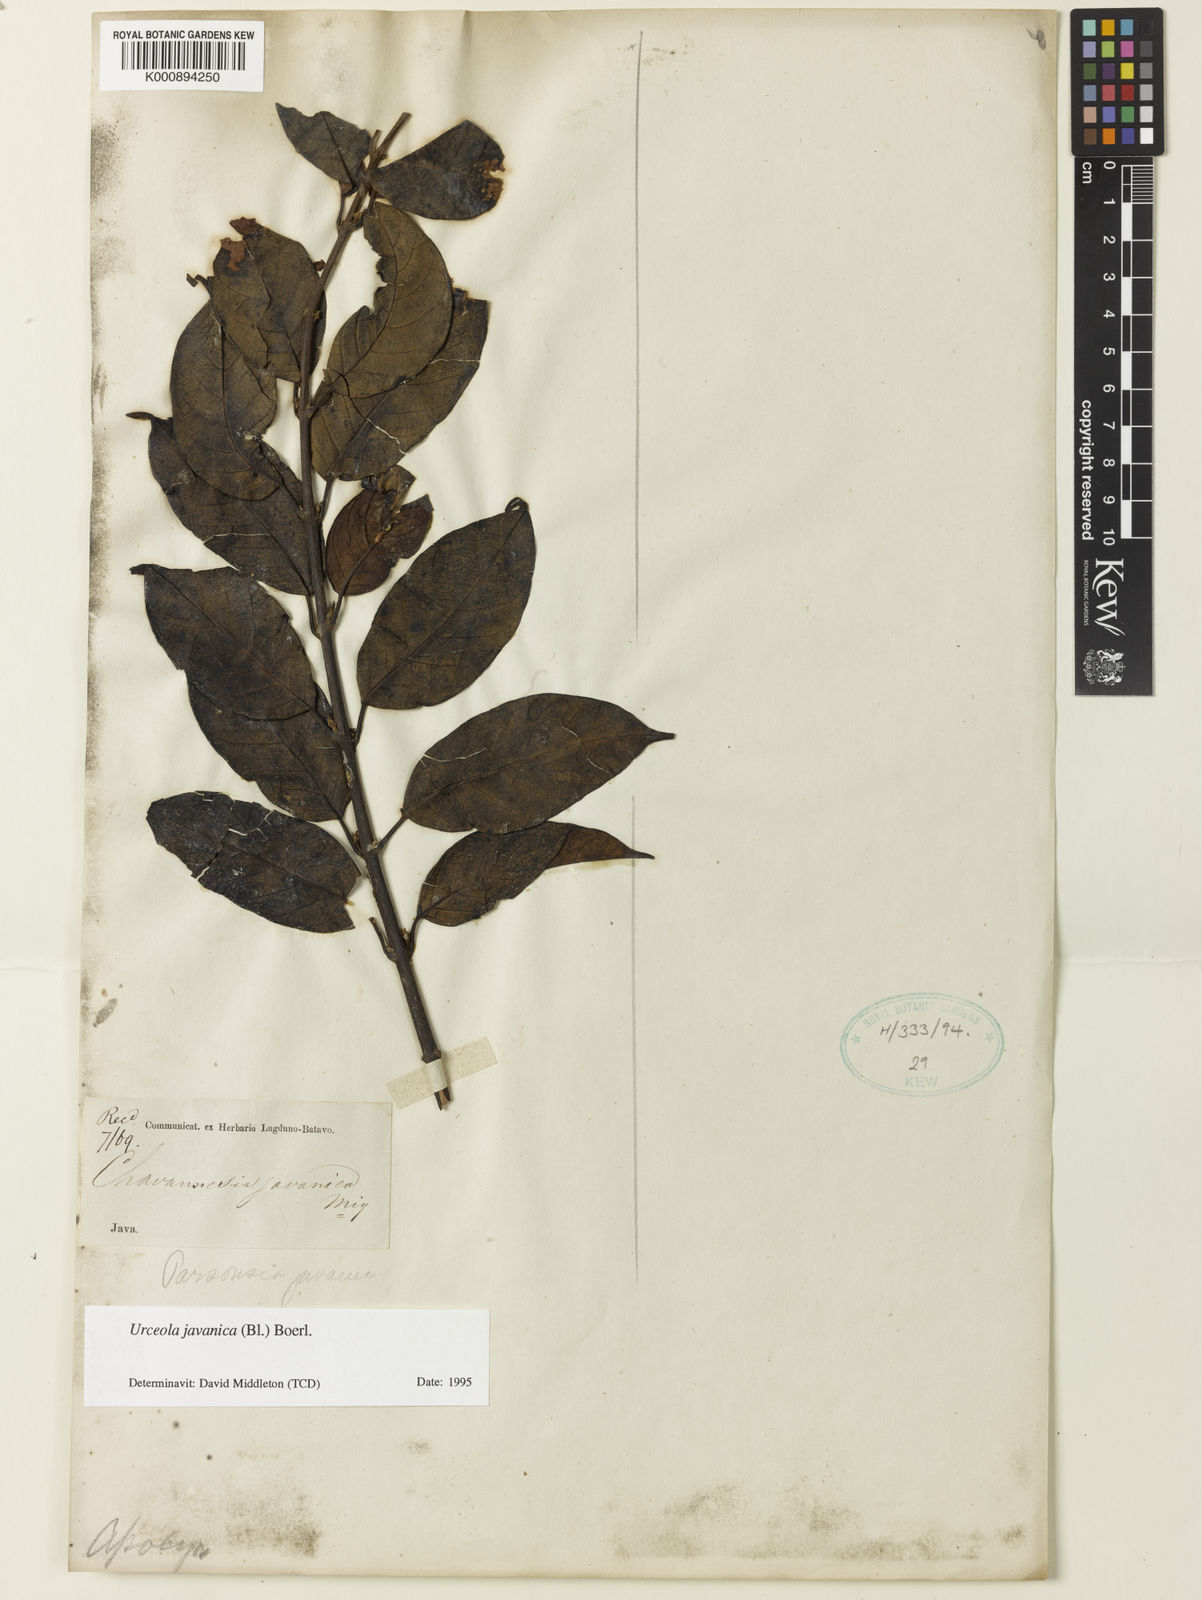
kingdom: Plantae
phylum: Tracheophyta
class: Magnoliopsida
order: Gentianales
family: Apocynaceae
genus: Urceola
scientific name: Urceola javanica
